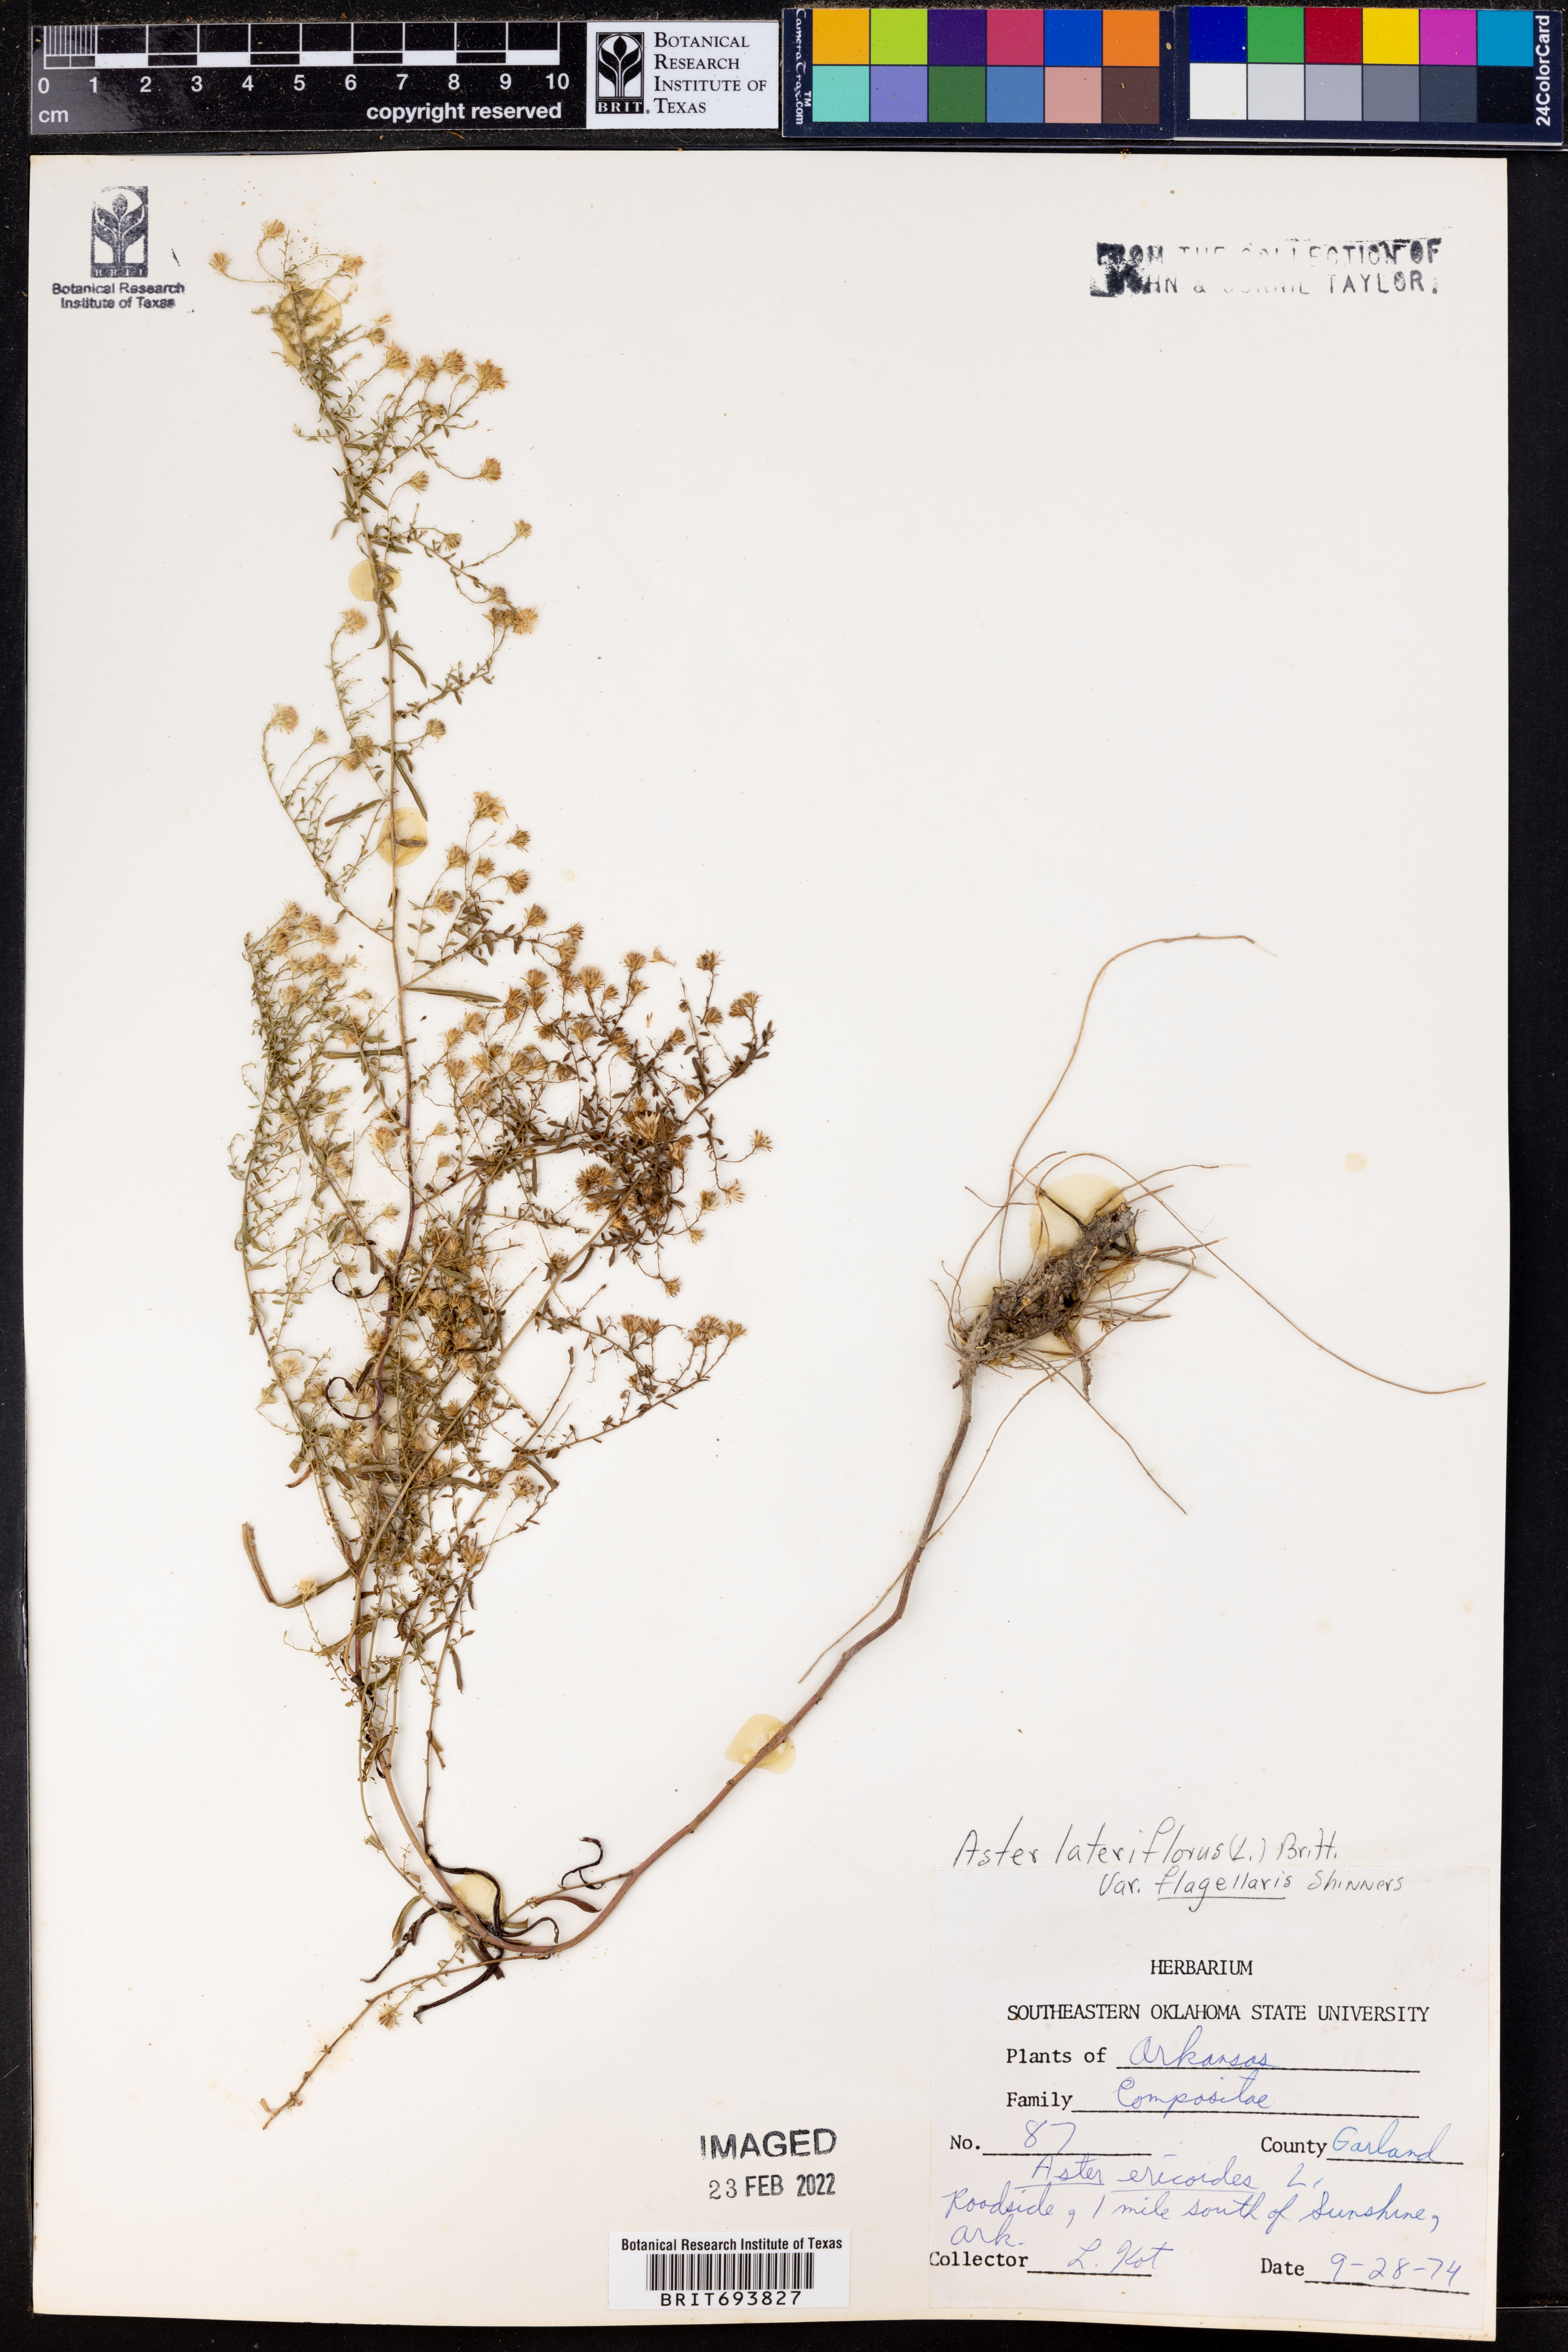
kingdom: Plantae
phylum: Tracheophyta
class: Magnoliopsida
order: Asterales
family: Asteraceae
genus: Symphyotrichum
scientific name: Symphyotrichum lateriflorum
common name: Calico aster
